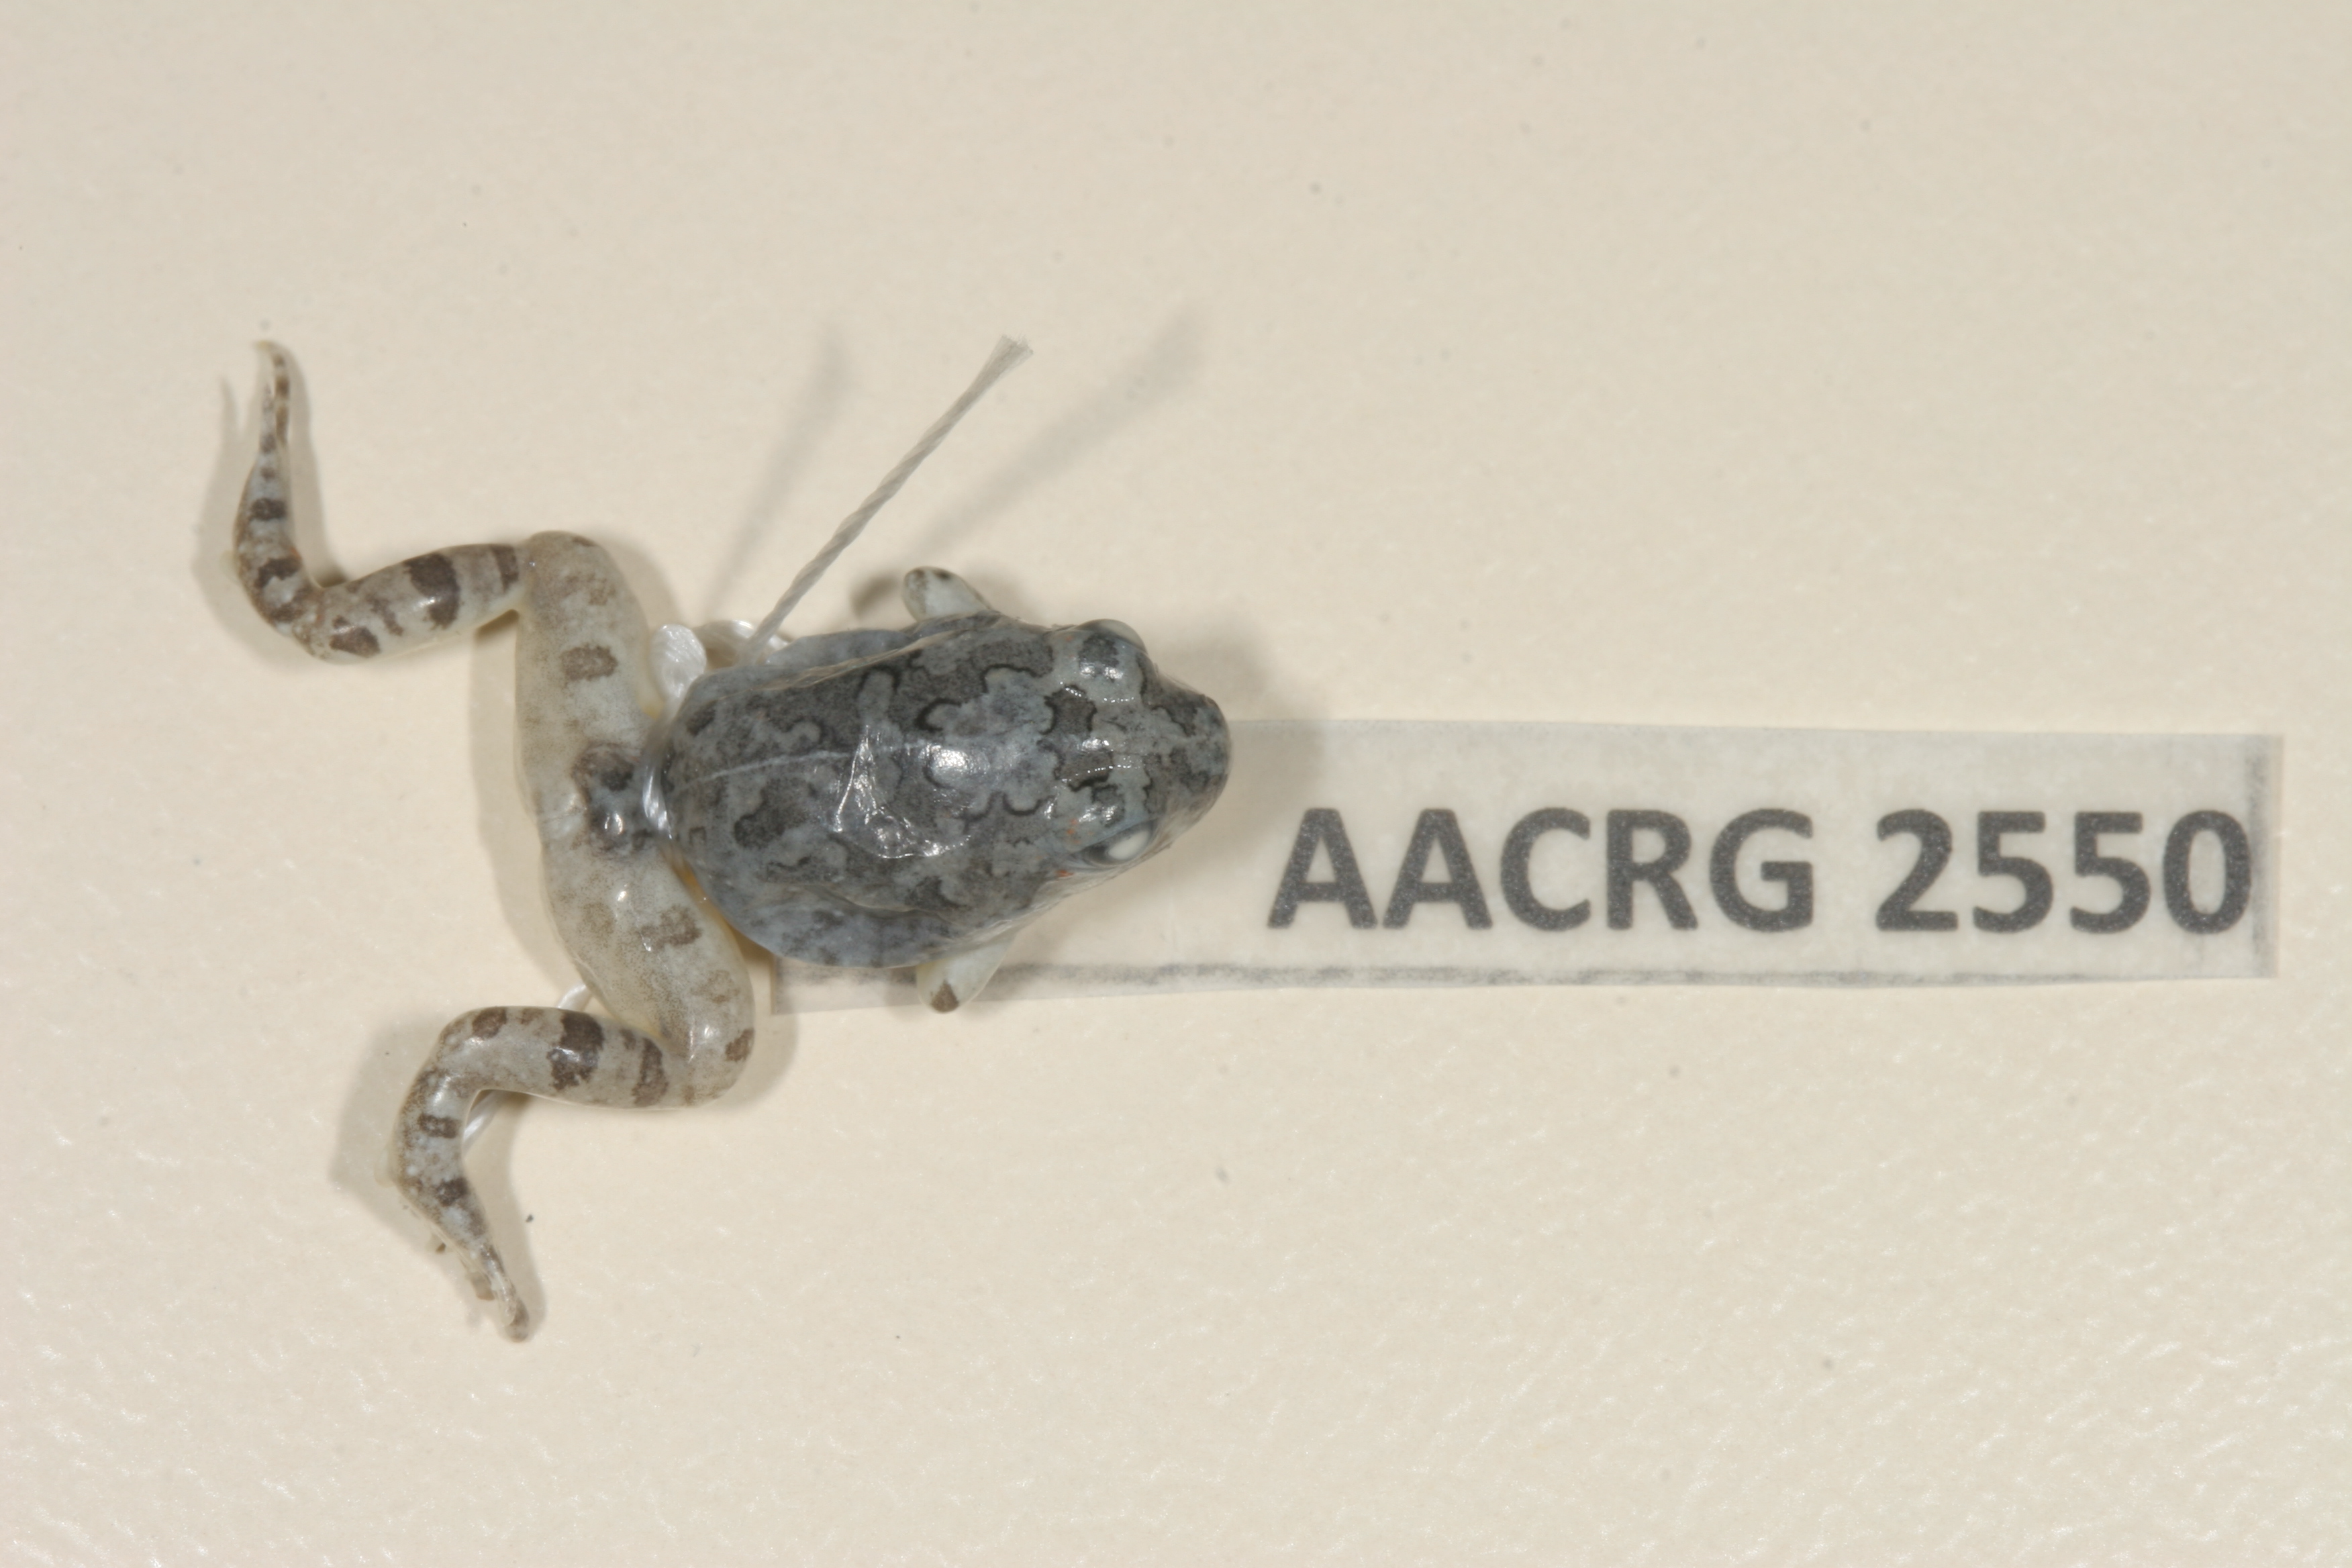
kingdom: Animalia
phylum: Chordata
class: Amphibia
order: Anura
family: Pyxicephalidae
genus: Tomopterna
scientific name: Tomopterna cryptotis
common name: Catequero bullfrog
